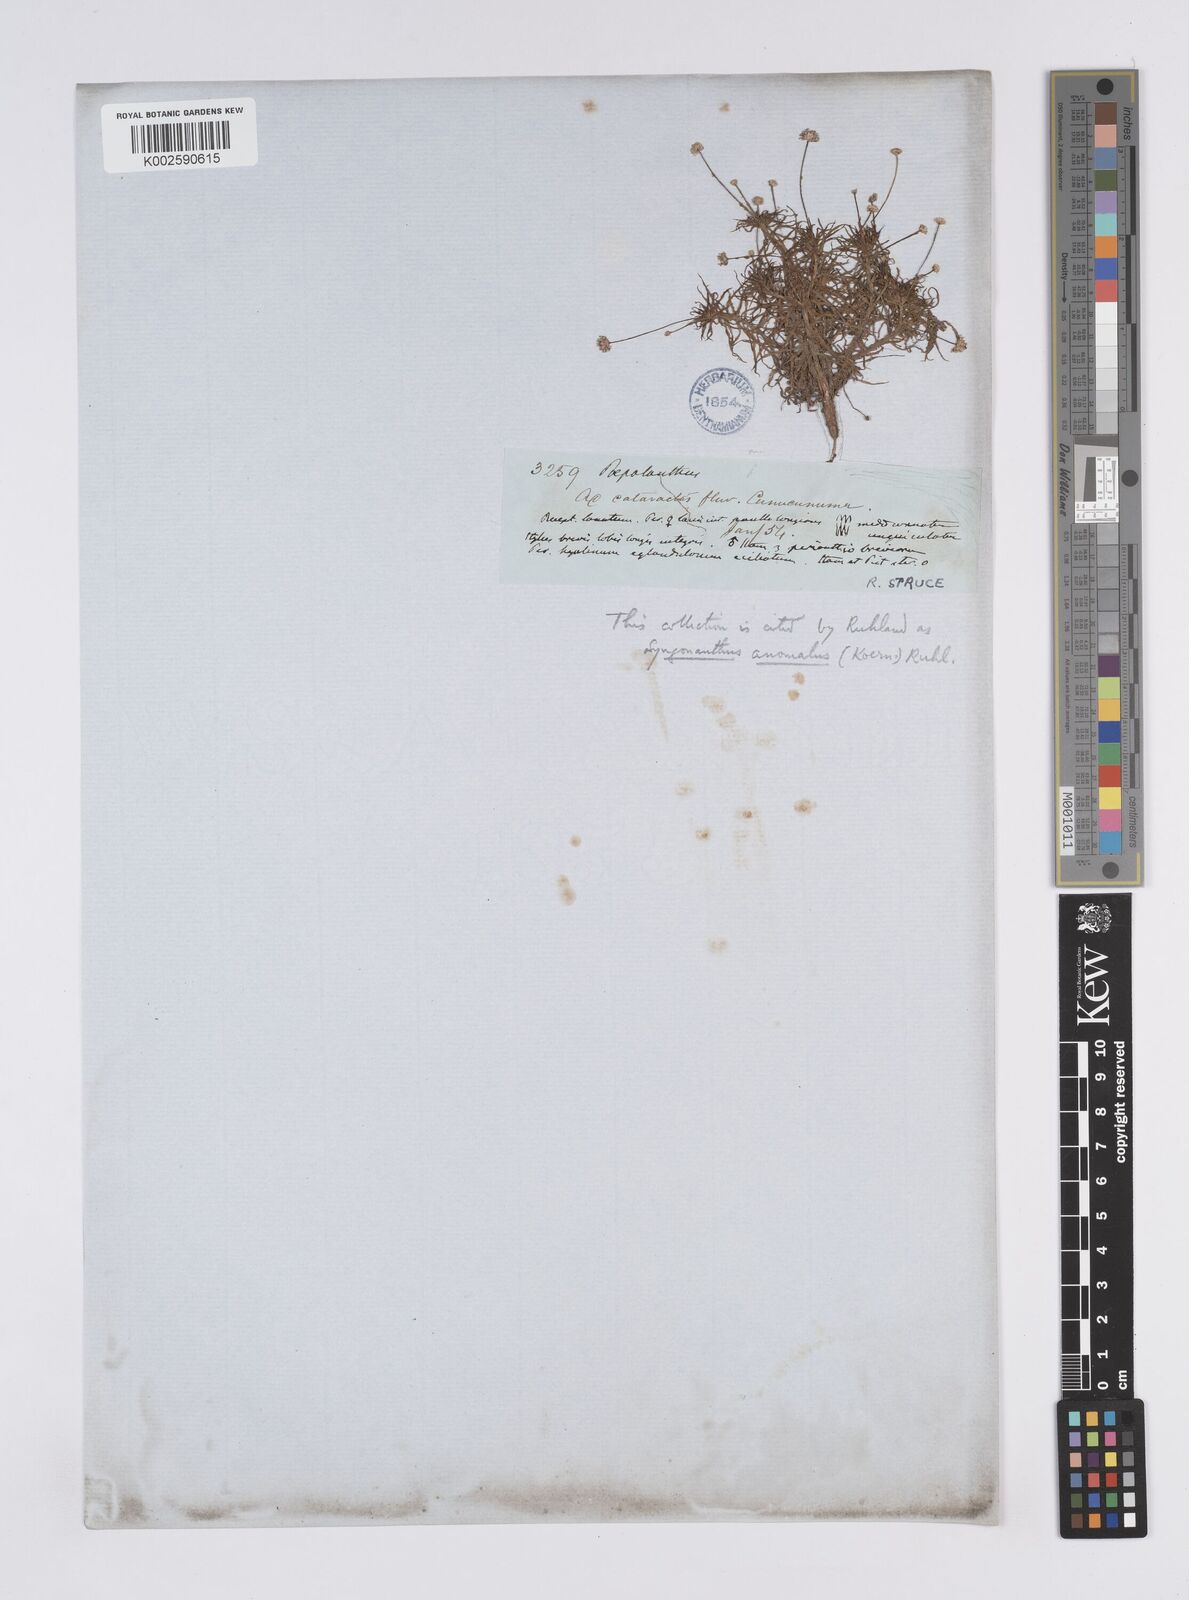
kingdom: Plantae
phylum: Tracheophyta
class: Liliopsida
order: Poales
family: Eriocaulaceae
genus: Syngonanthus
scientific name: Syngonanthus anomalus
